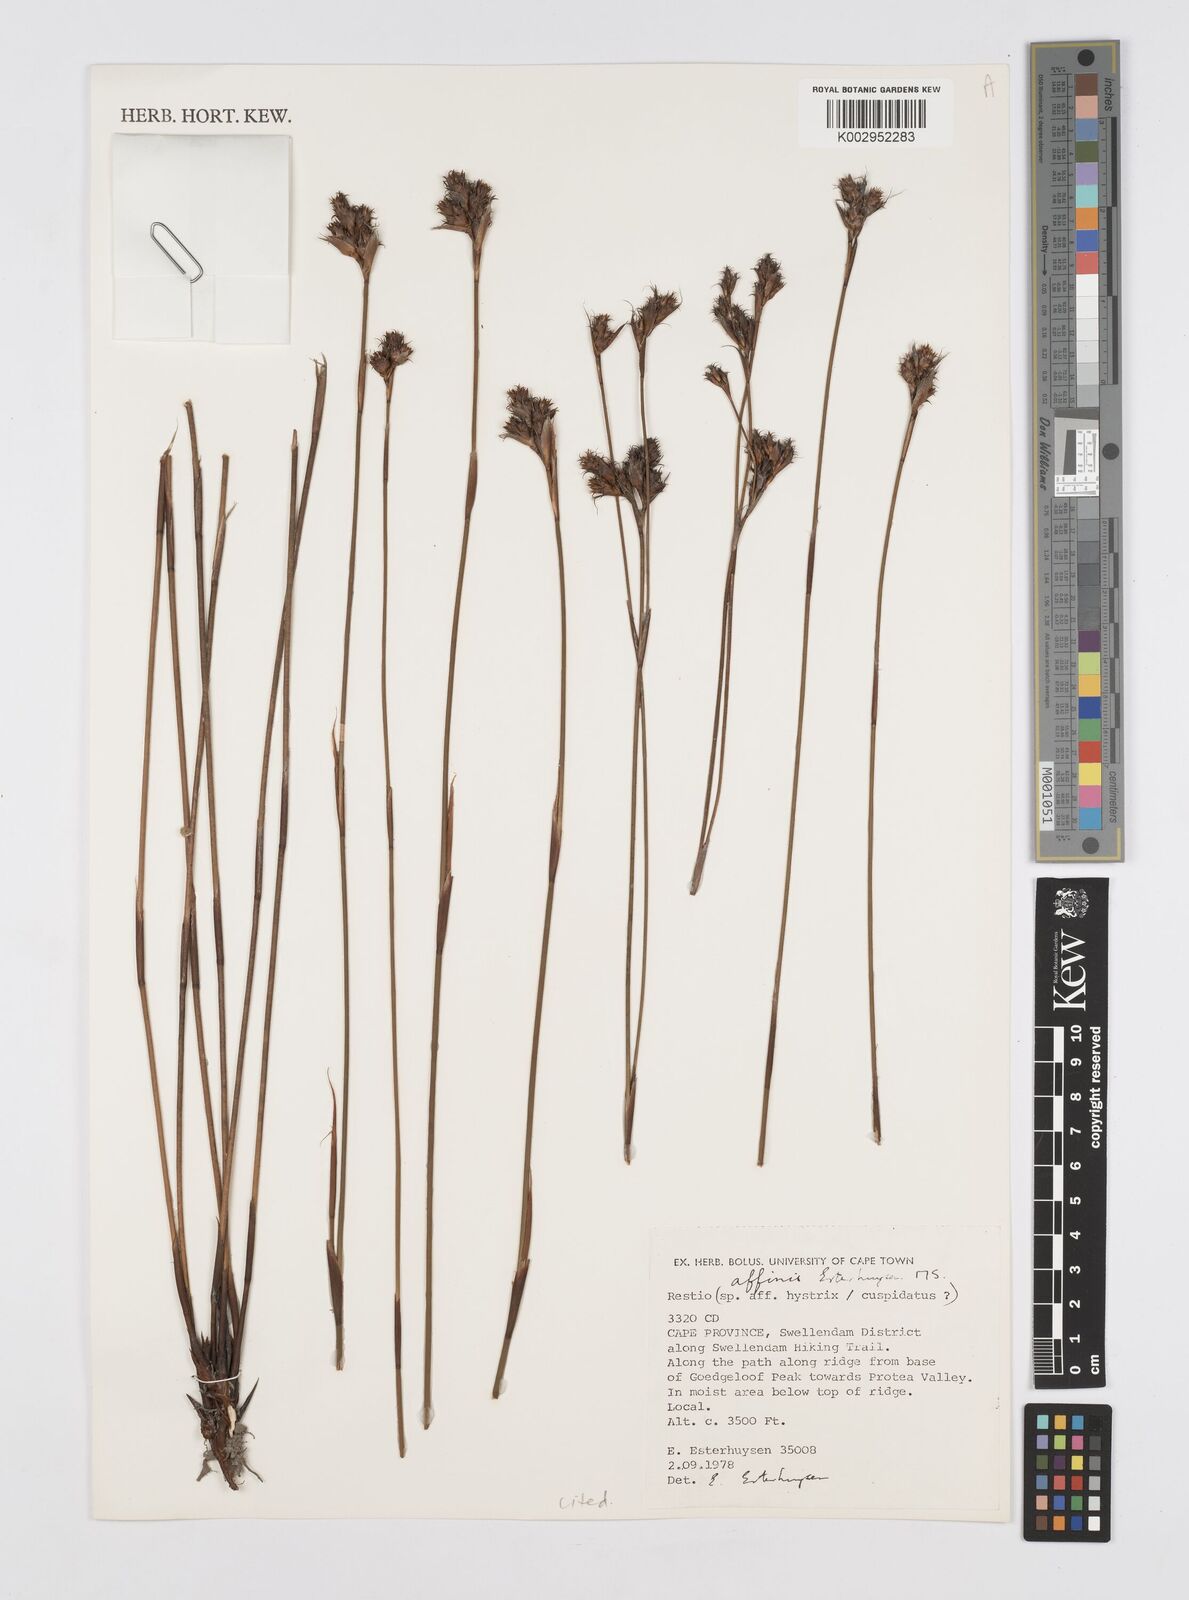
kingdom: Plantae
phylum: Tracheophyta
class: Liliopsida
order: Poales
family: Restionaceae
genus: Restio
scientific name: Restio affinis
